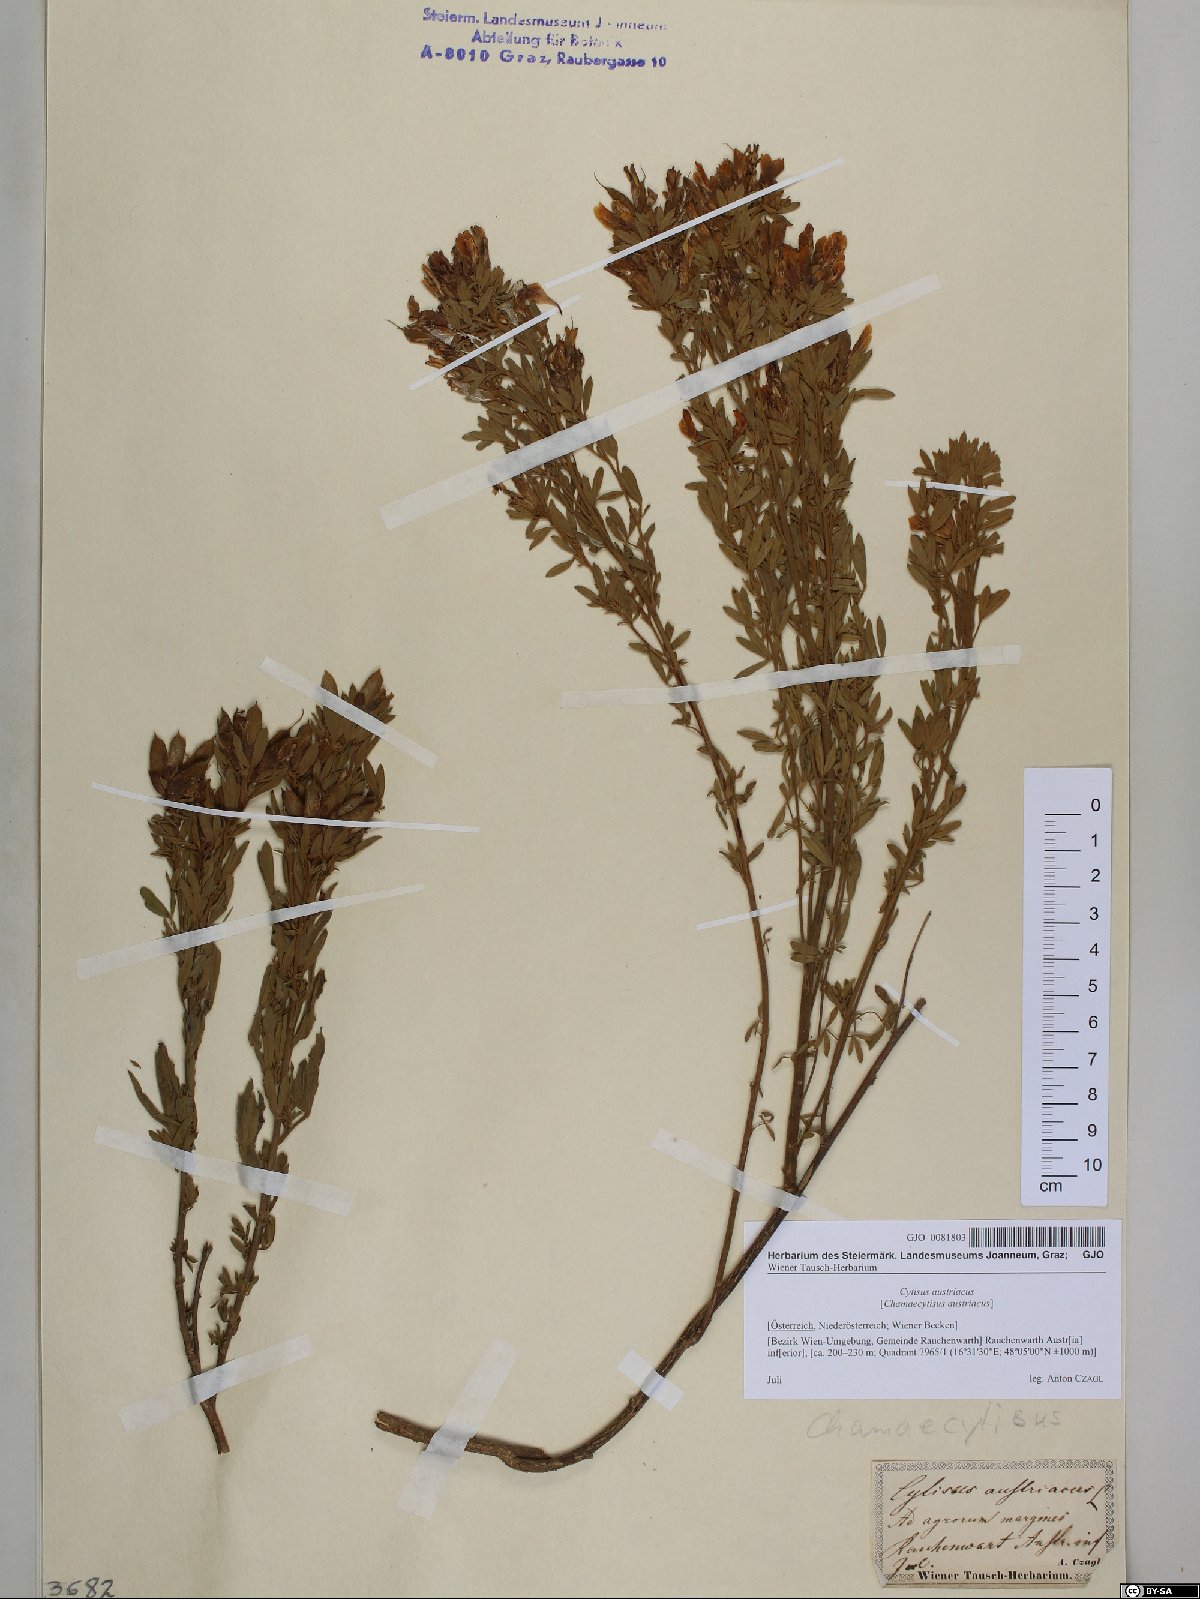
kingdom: Plantae
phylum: Tracheophyta
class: Magnoliopsida
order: Fabales
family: Fabaceae
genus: Chamaecytisus
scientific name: Chamaecytisus austriacus
